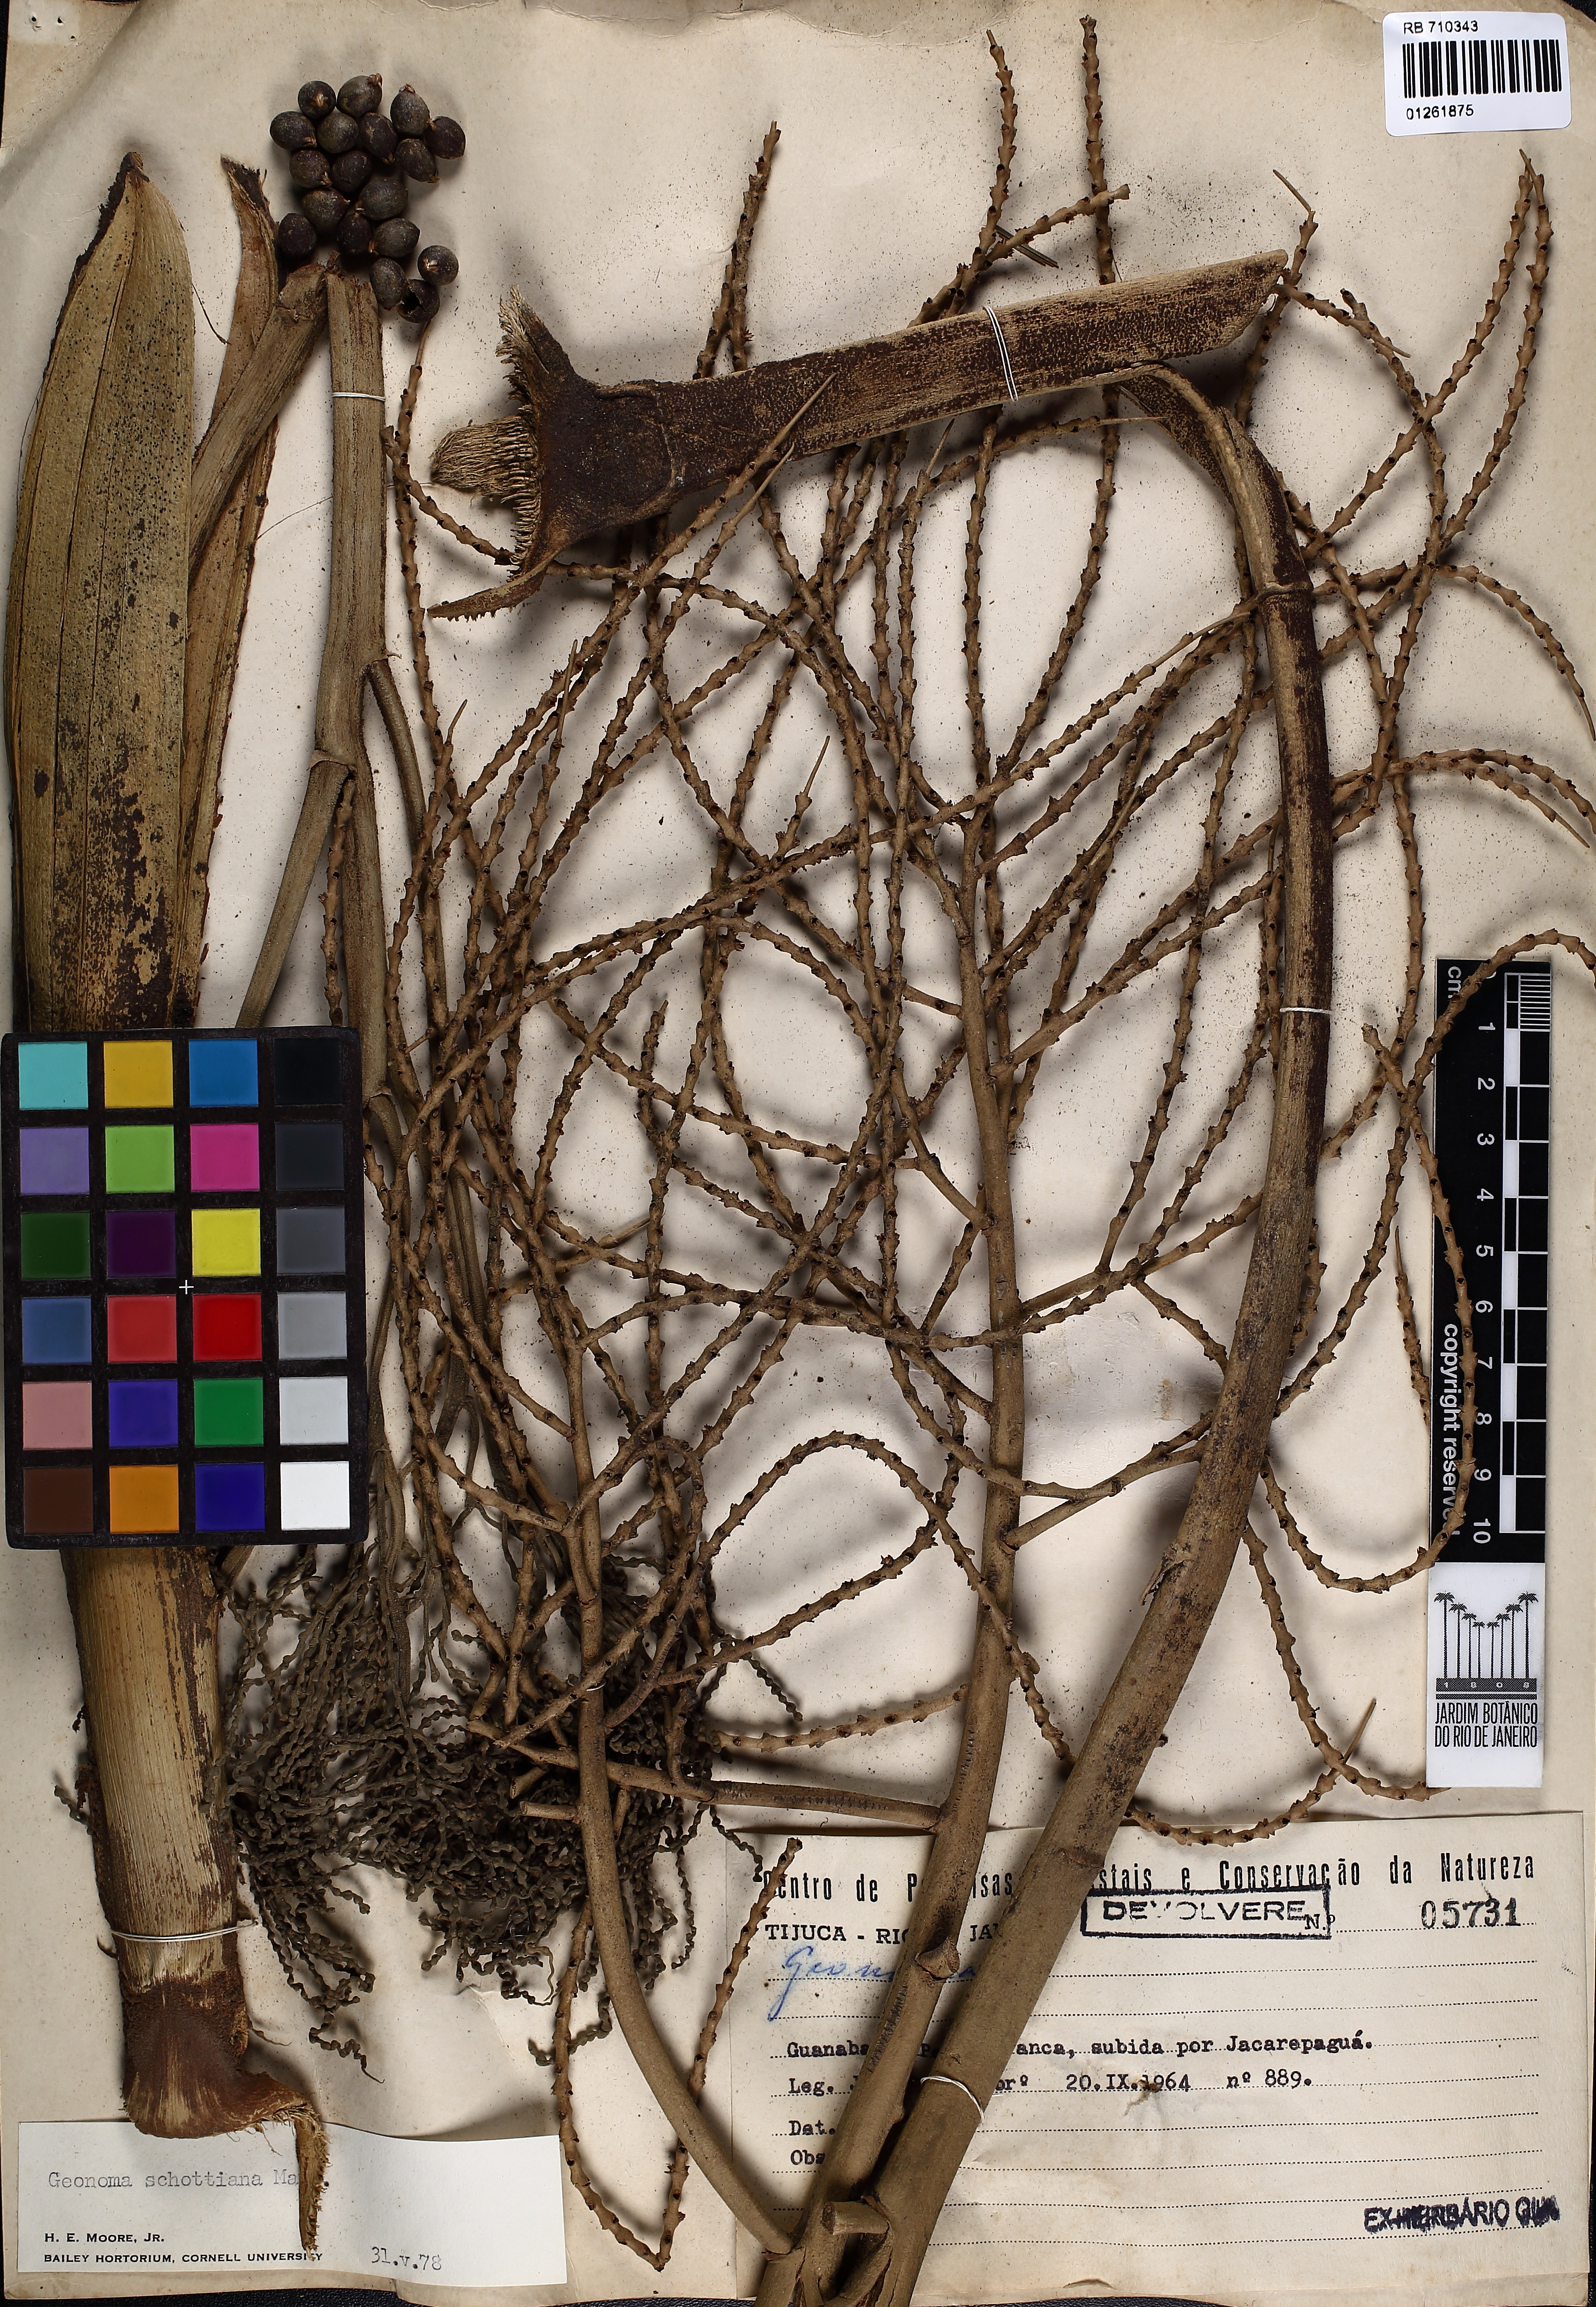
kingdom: Plantae
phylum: Tracheophyta
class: Liliopsida
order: Arecales
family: Arecaceae
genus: Geonoma
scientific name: Geonoma schottiana
